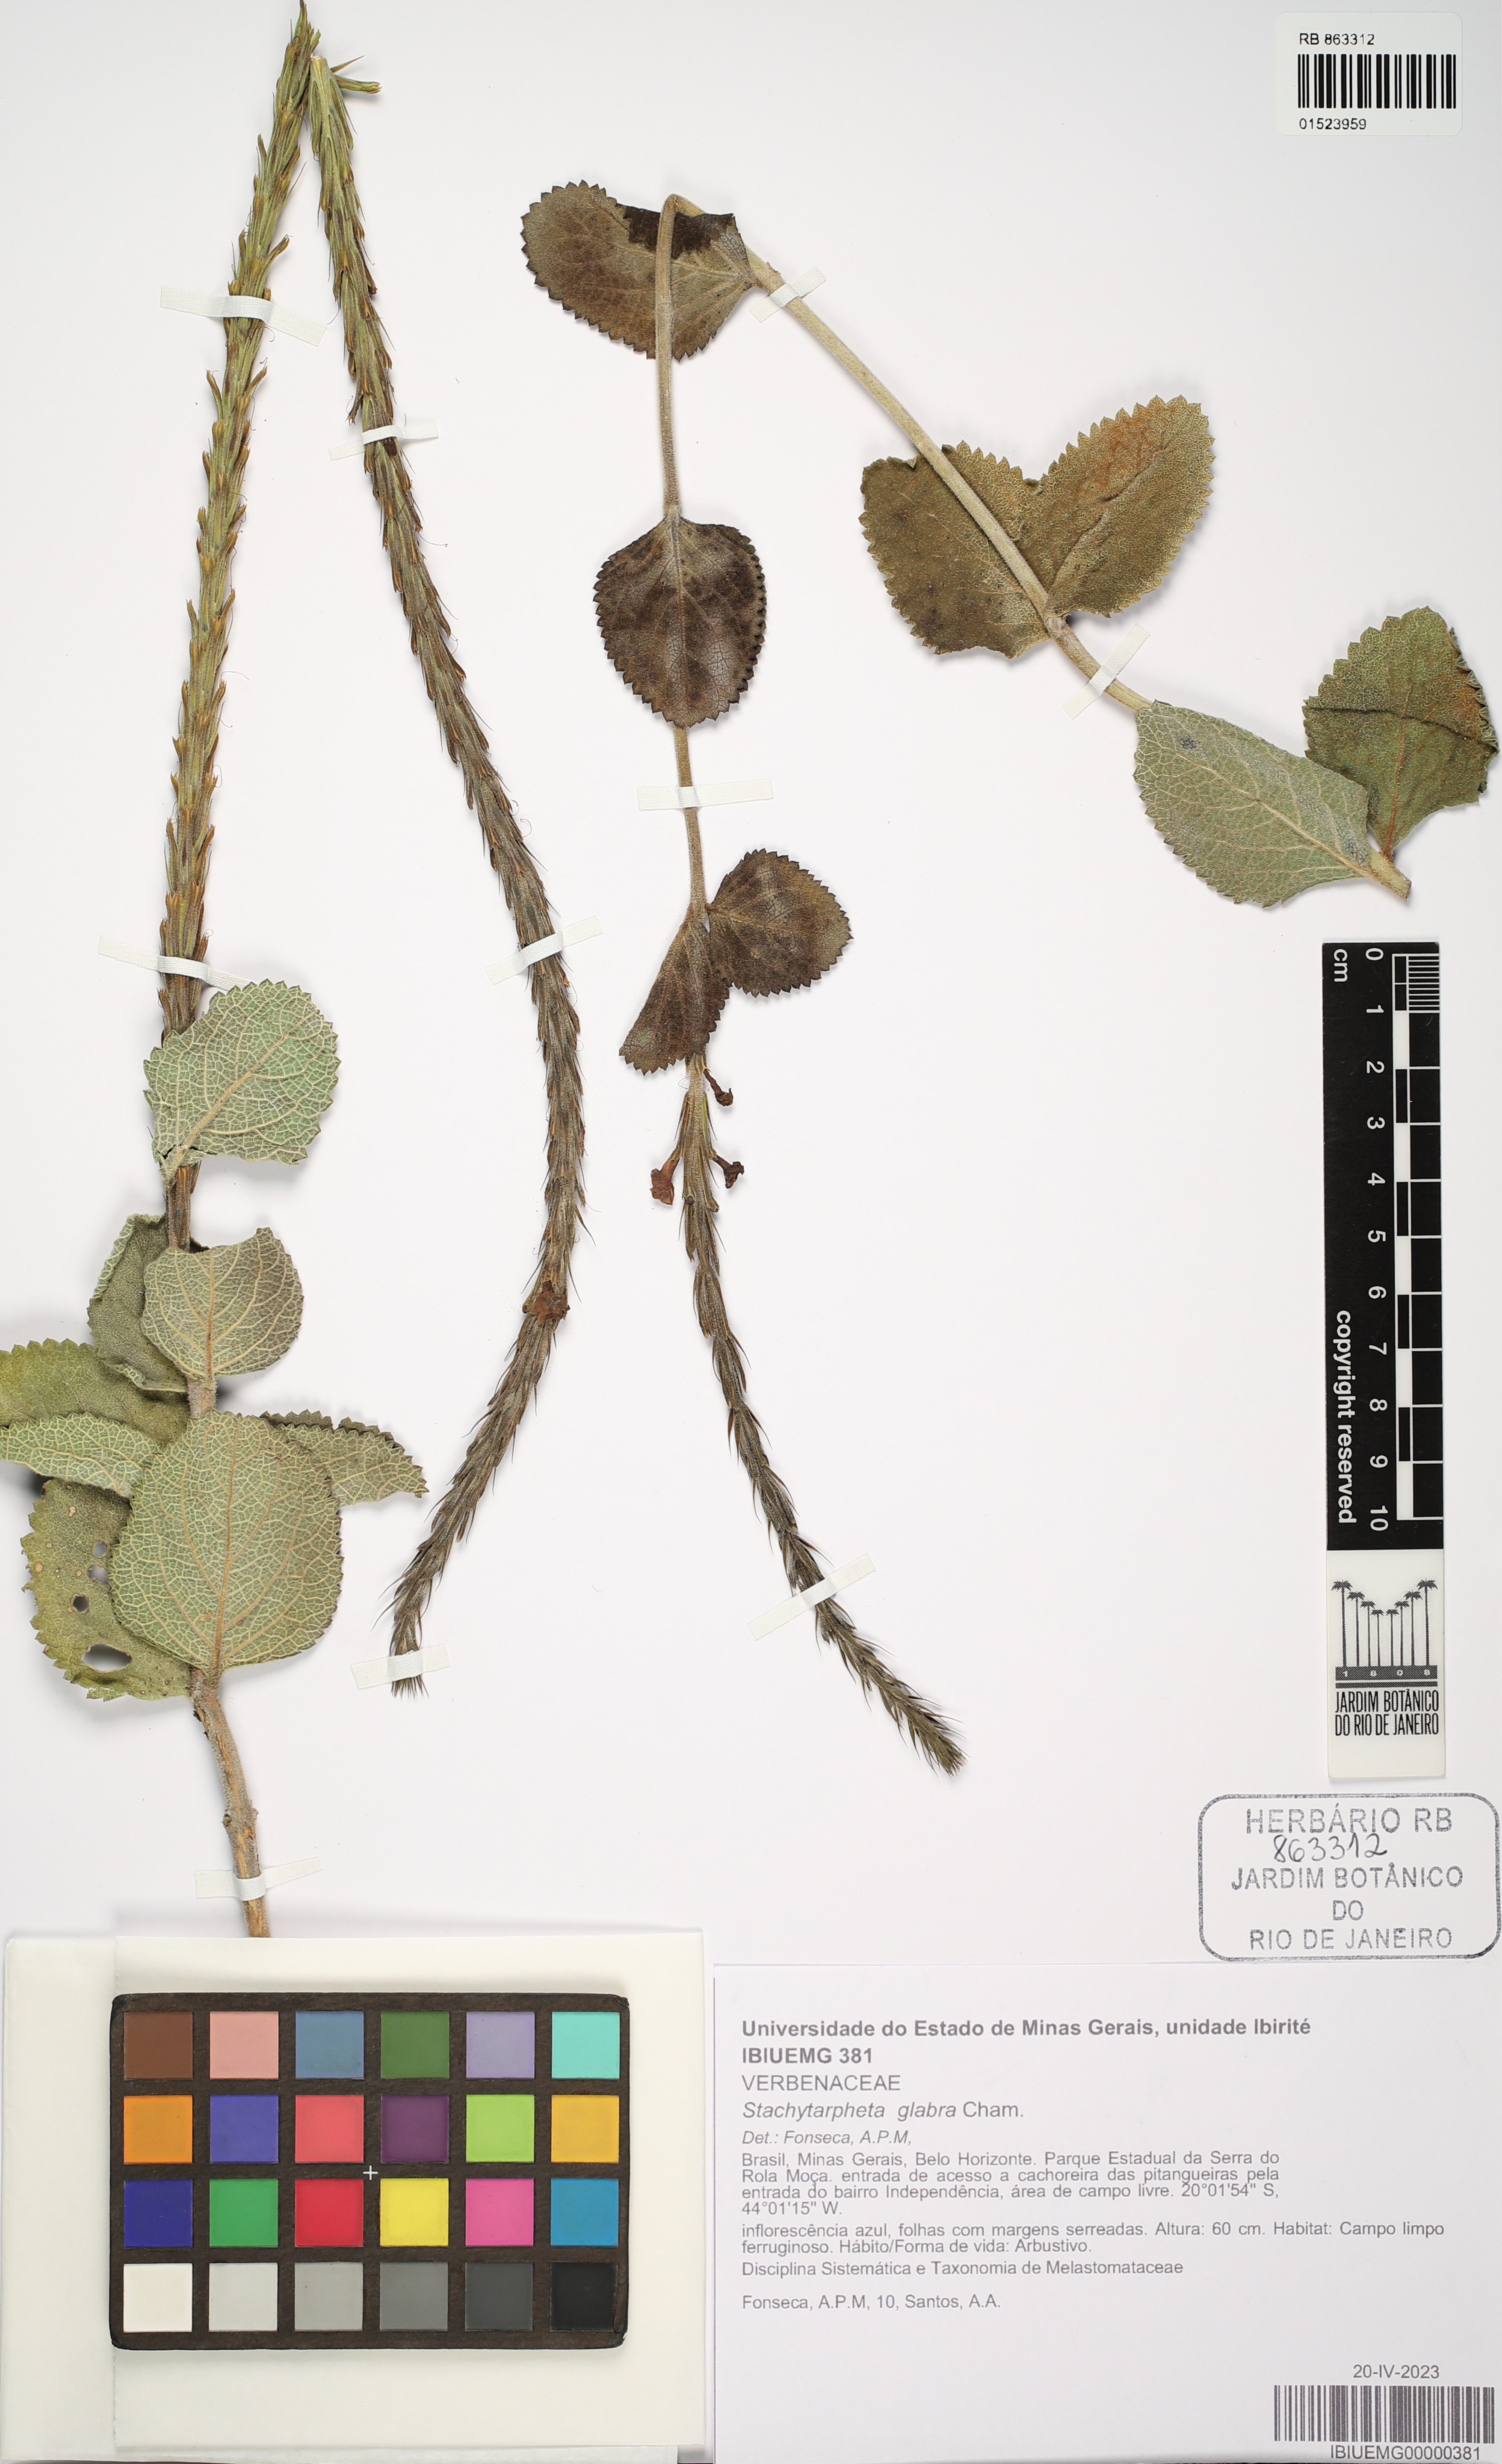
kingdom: Plantae
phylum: Tracheophyta
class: Magnoliopsida
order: Lamiales
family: Verbenaceae
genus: Stachytarpheta
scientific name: Stachytarpheta glabra
